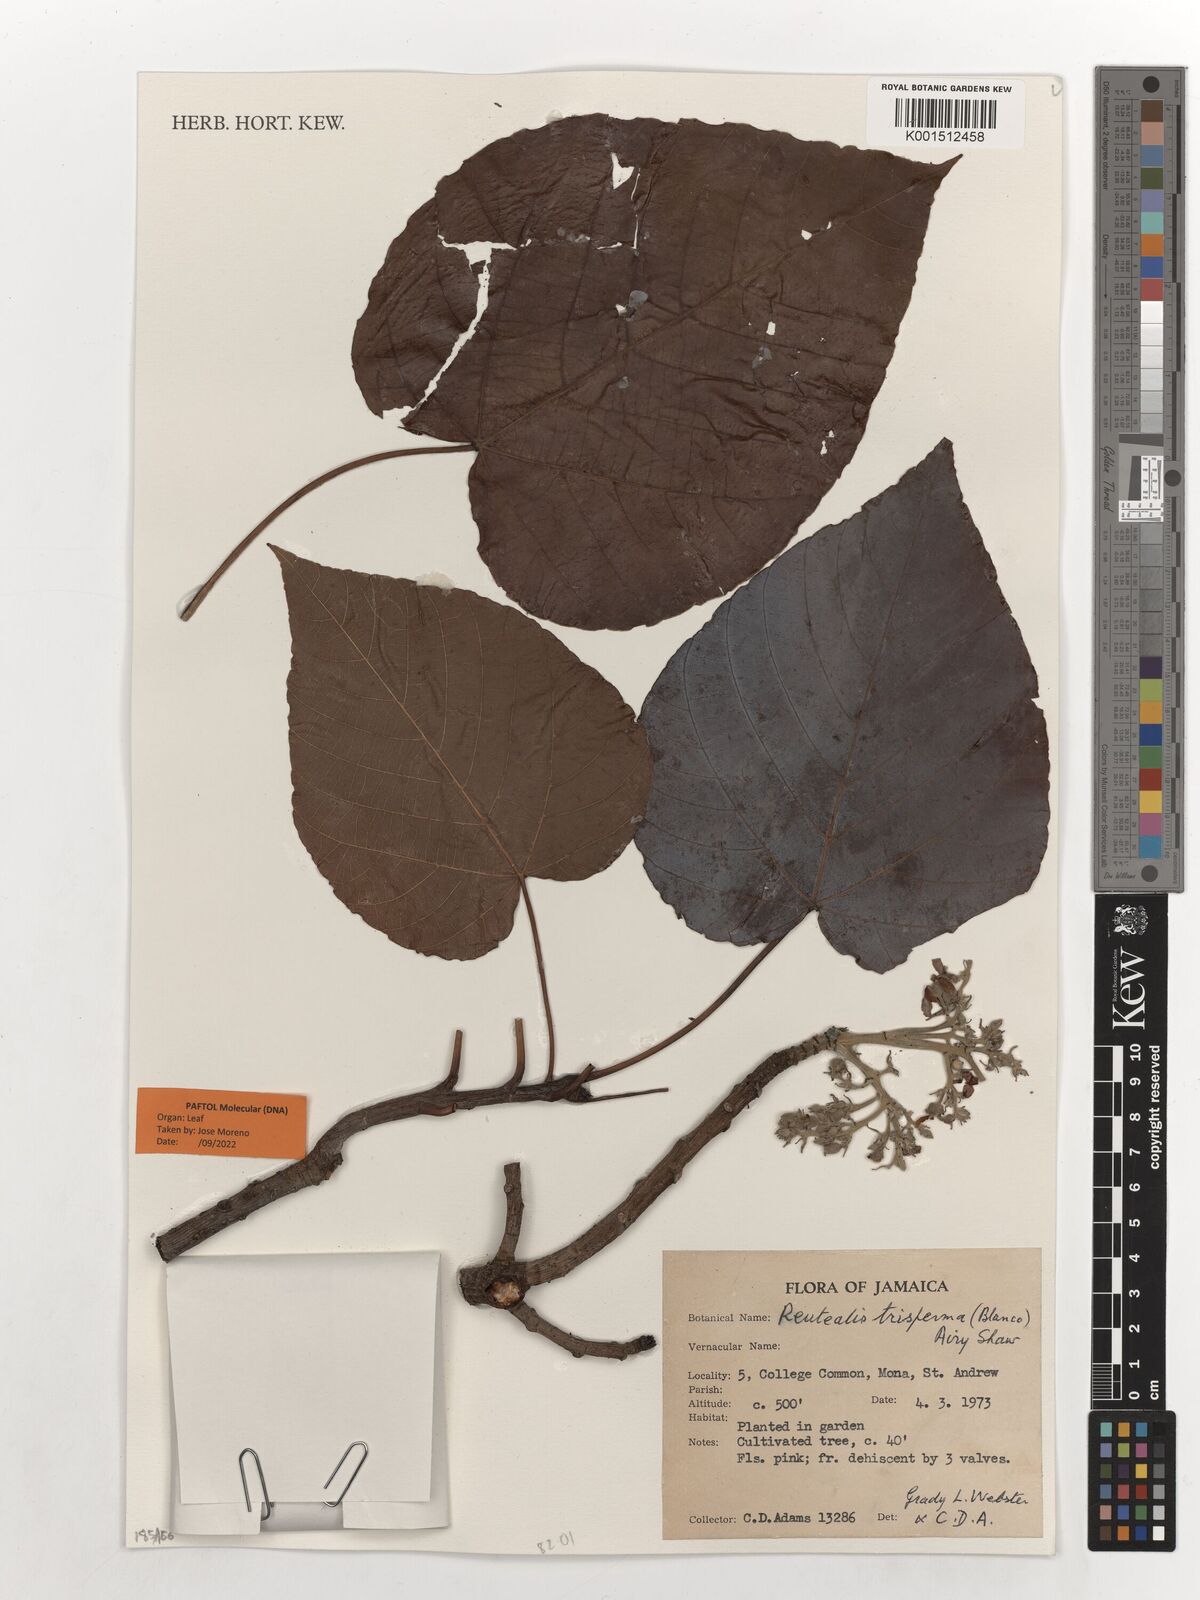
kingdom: Plantae
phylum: Tracheophyta
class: Magnoliopsida
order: Malpighiales
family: Euphorbiaceae
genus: Reutealis
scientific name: Reutealis trisperma
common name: Banucalag-nut
